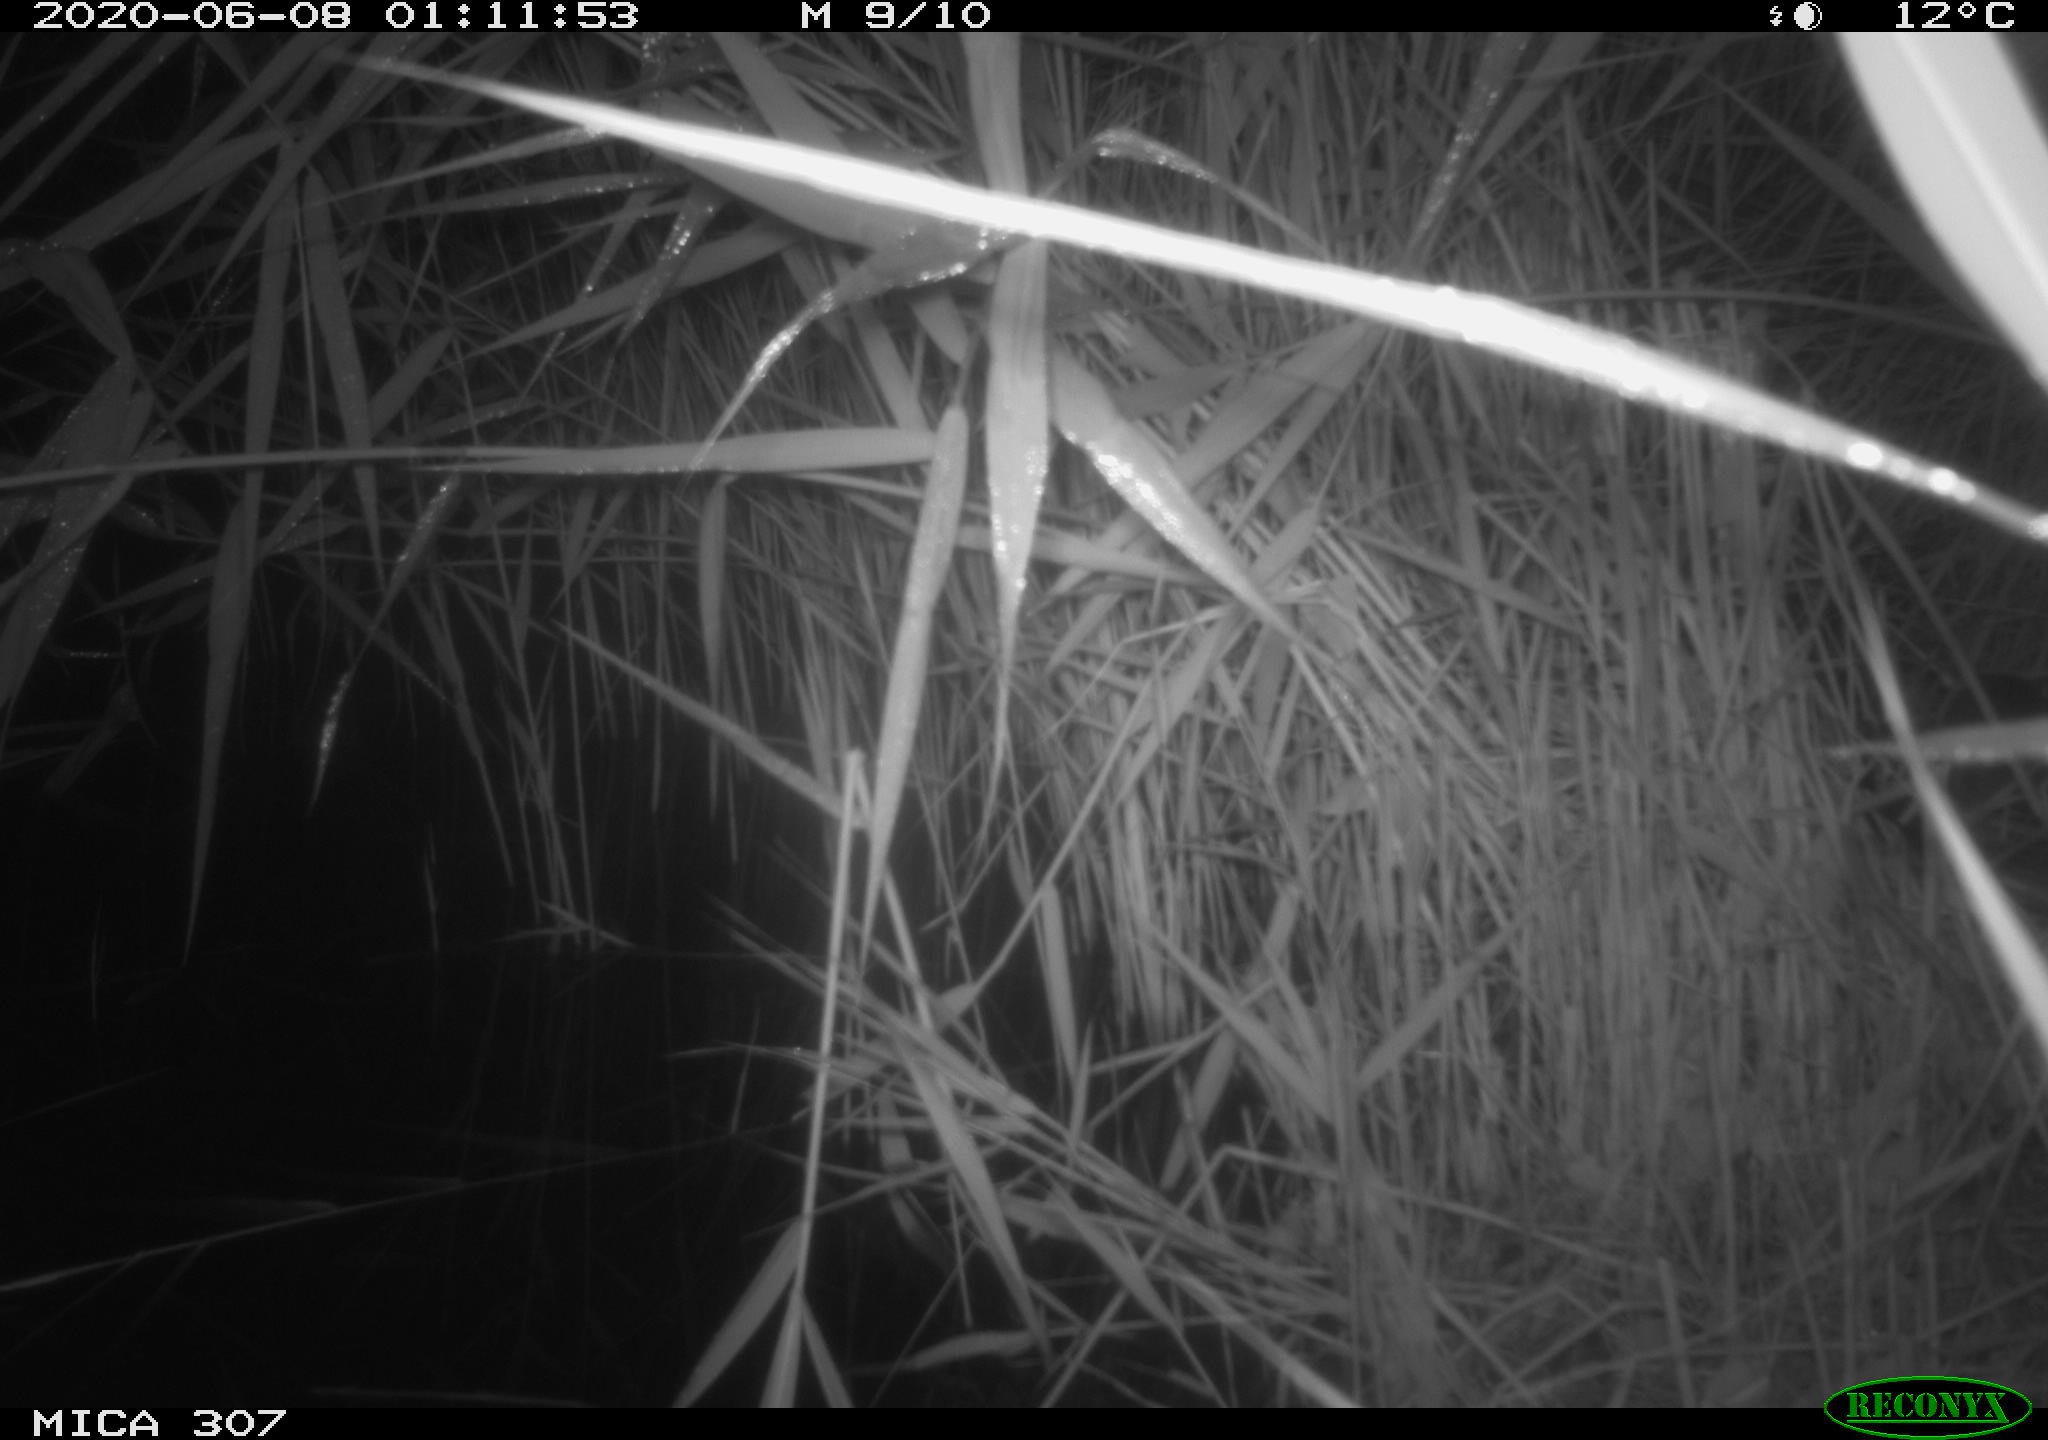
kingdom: Animalia
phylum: Chordata
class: Mammalia
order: Rodentia
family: Muridae
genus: Rattus
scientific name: Rattus norvegicus
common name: Brown rat
